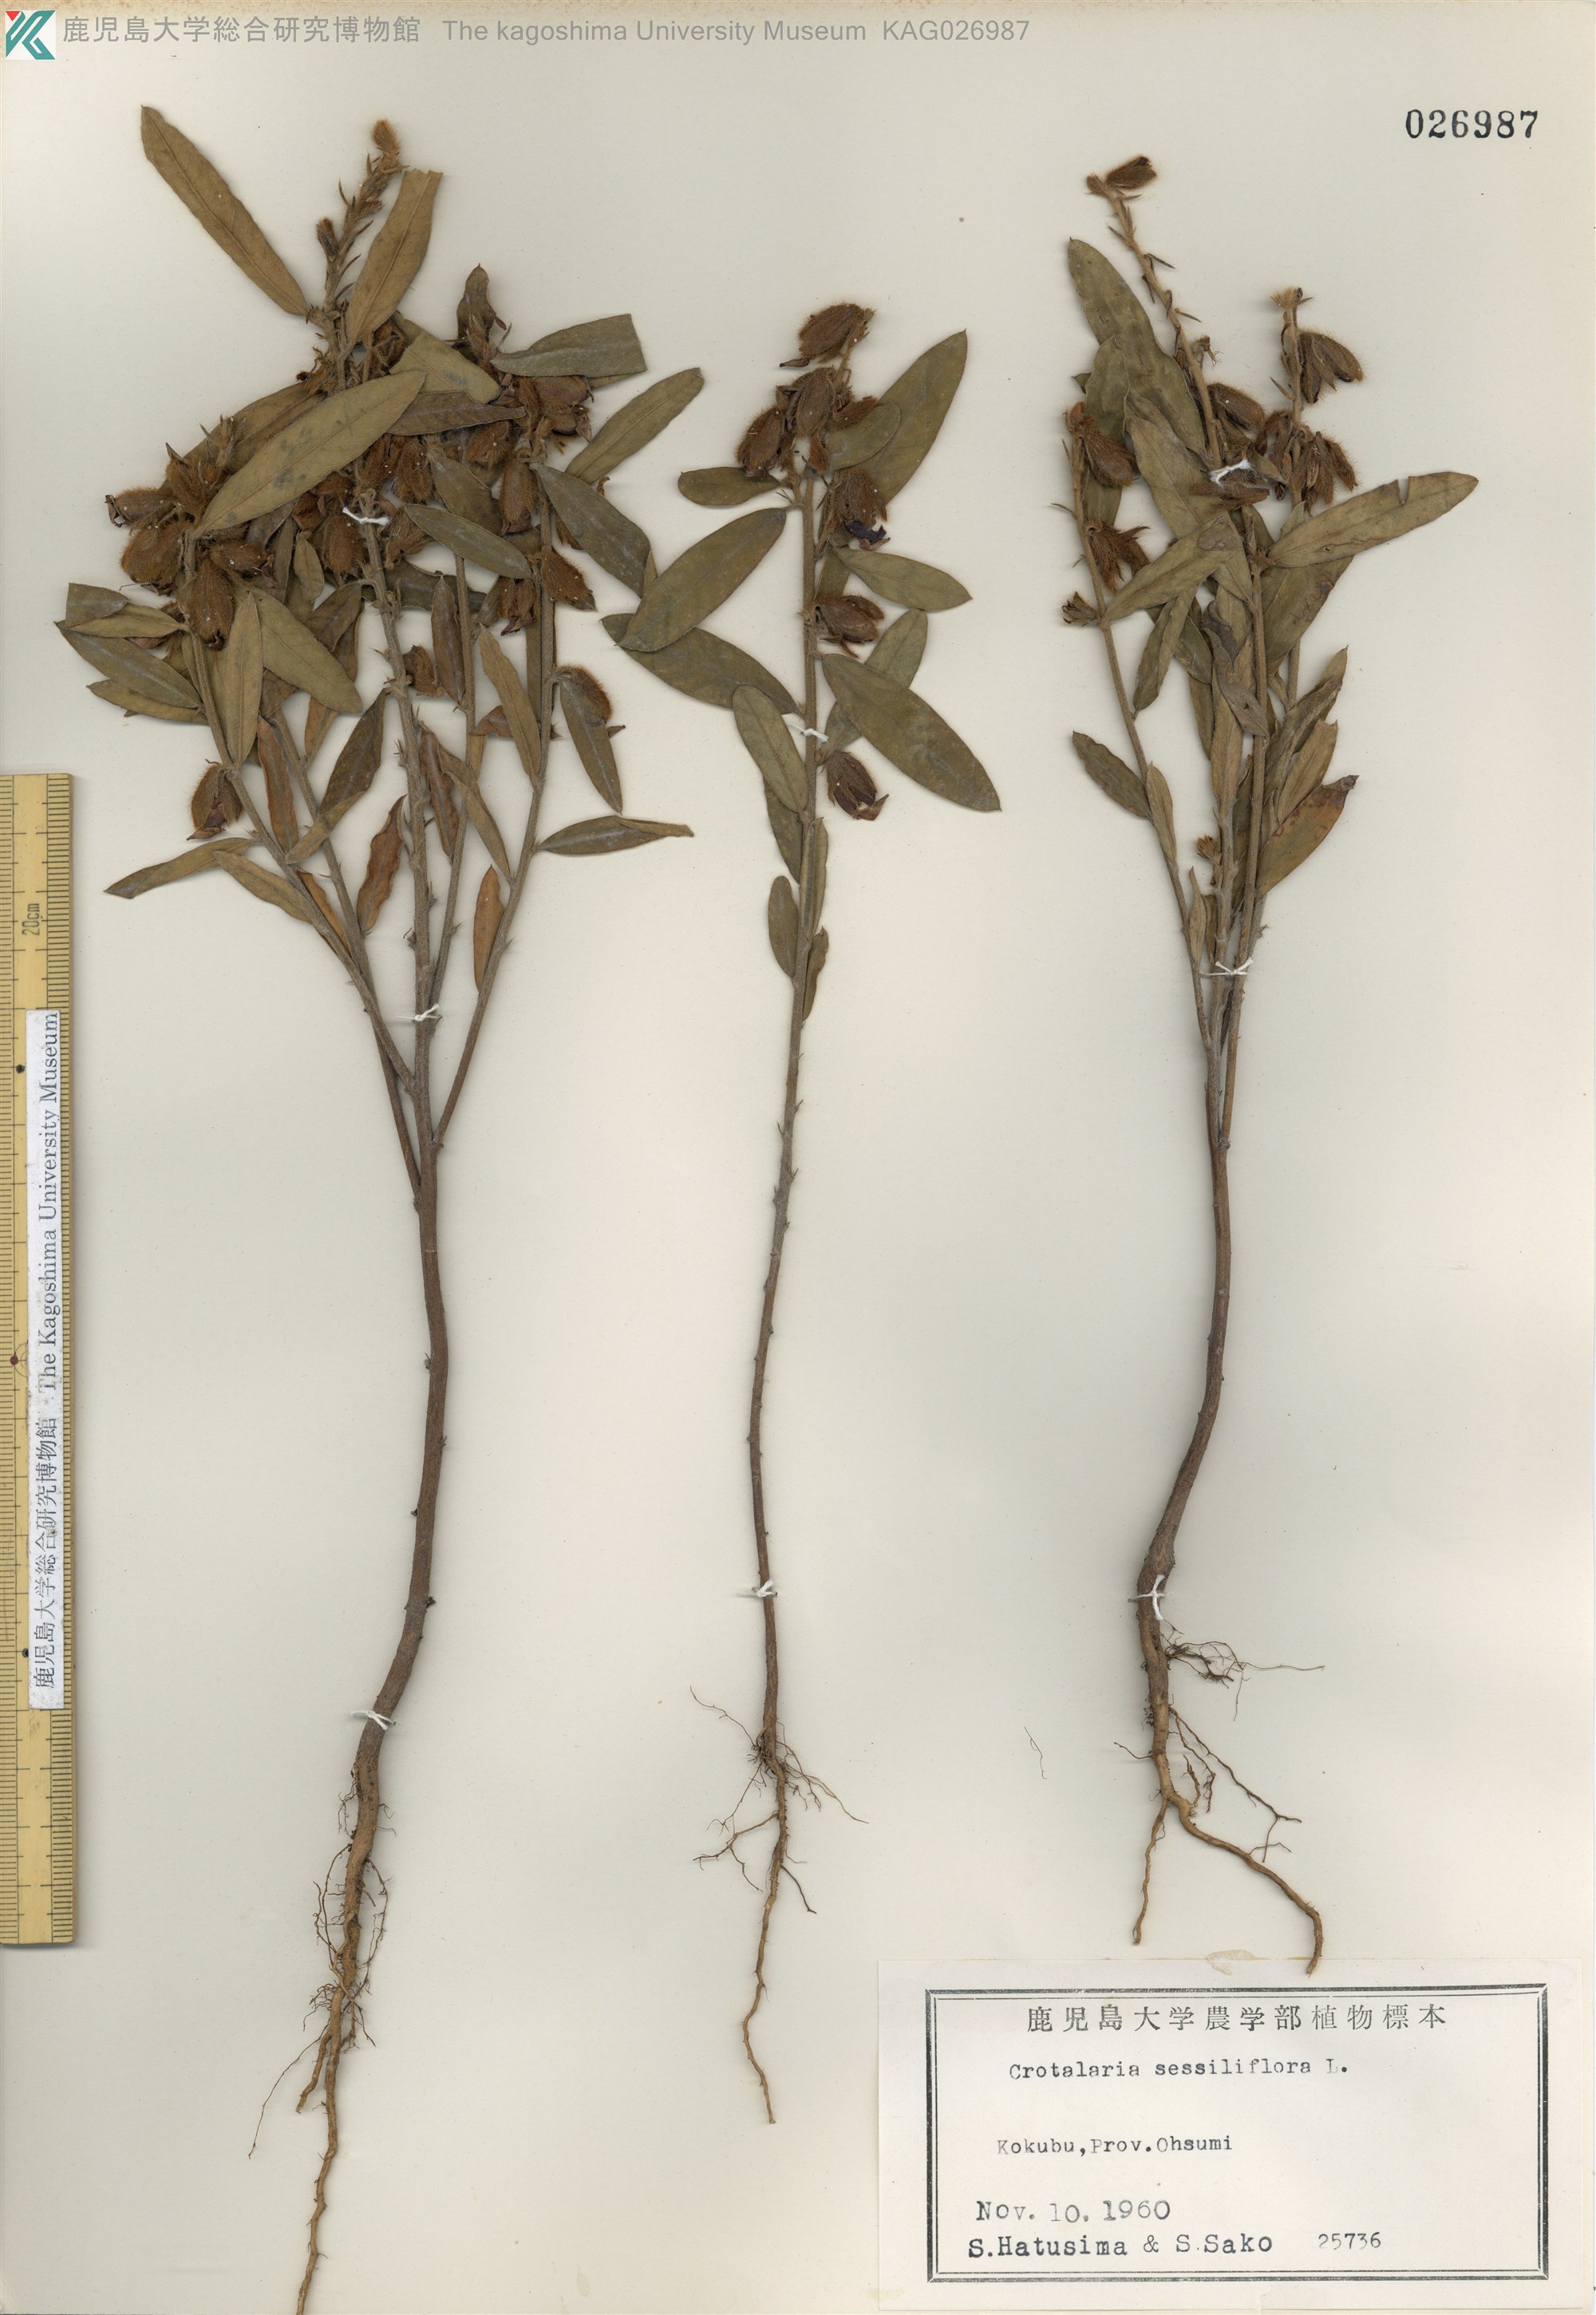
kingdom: Plantae
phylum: Tracheophyta
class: Magnoliopsida
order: Fabales
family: Fabaceae
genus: Crotalaria
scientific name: Crotalaria sessiliflora
